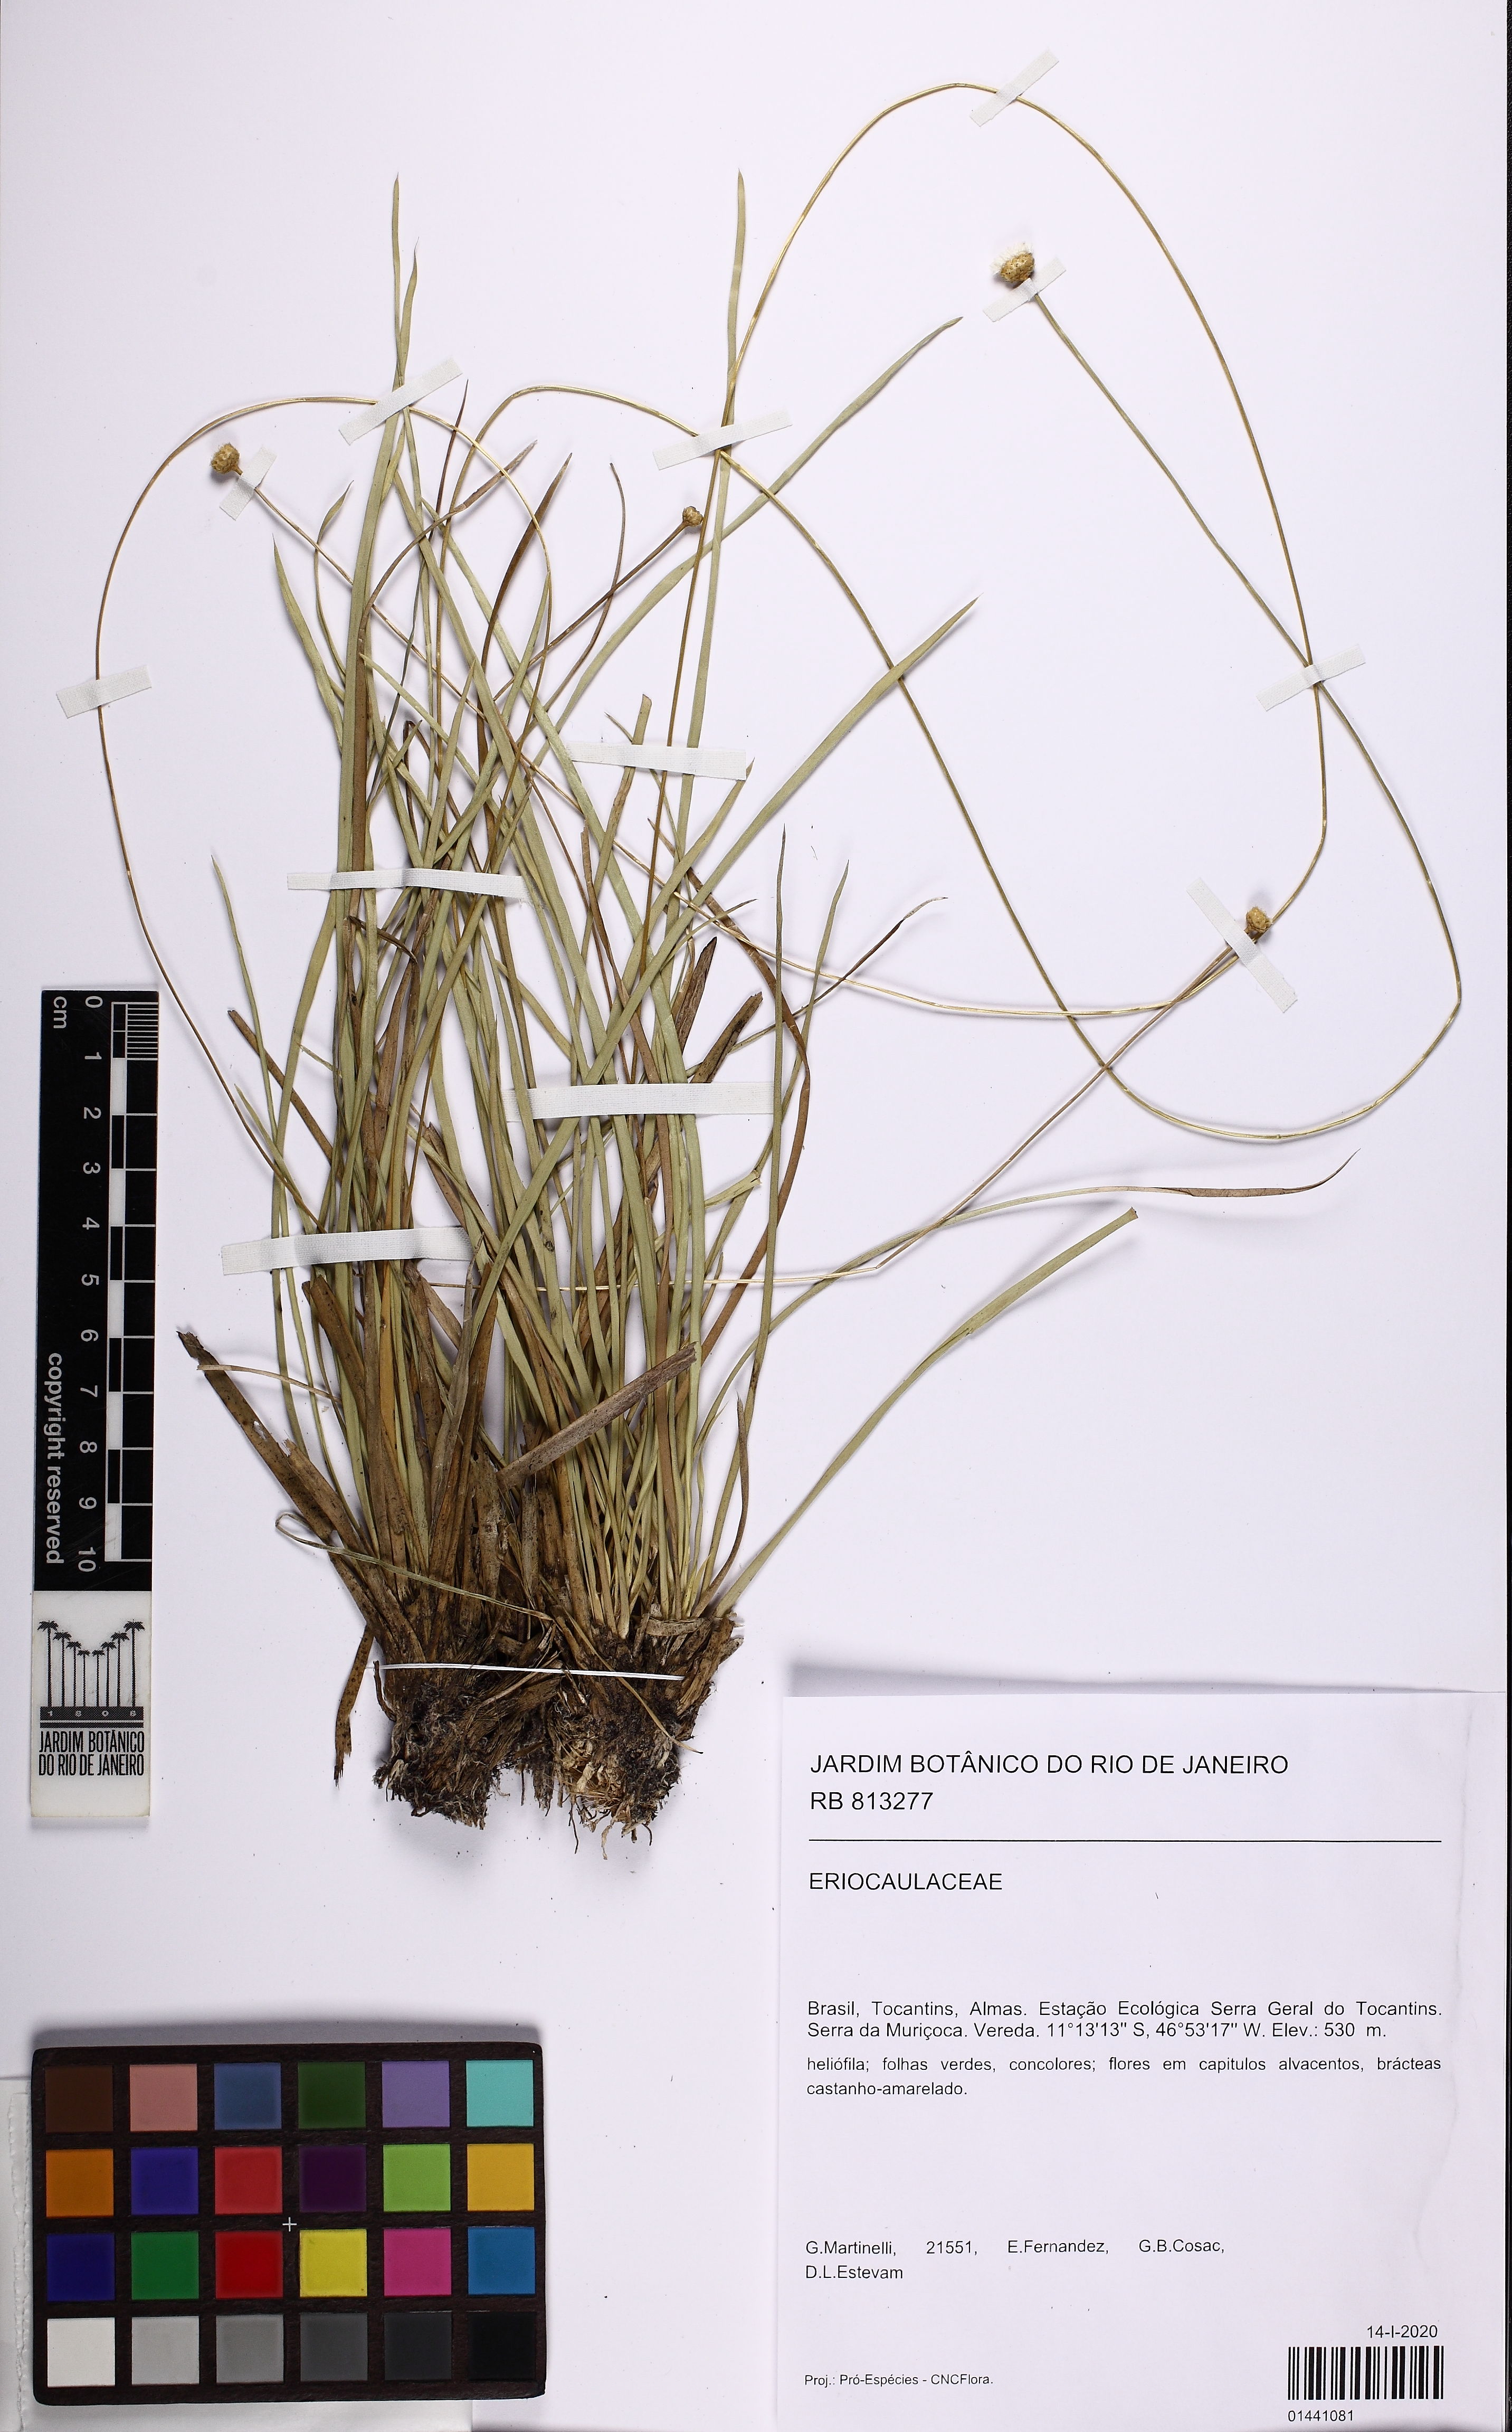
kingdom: Plantae
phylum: Tracheophyta
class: Liliopsida
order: Poales
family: Eriocaulaceae
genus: Comanthera
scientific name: Comanthera xeranthemoides
